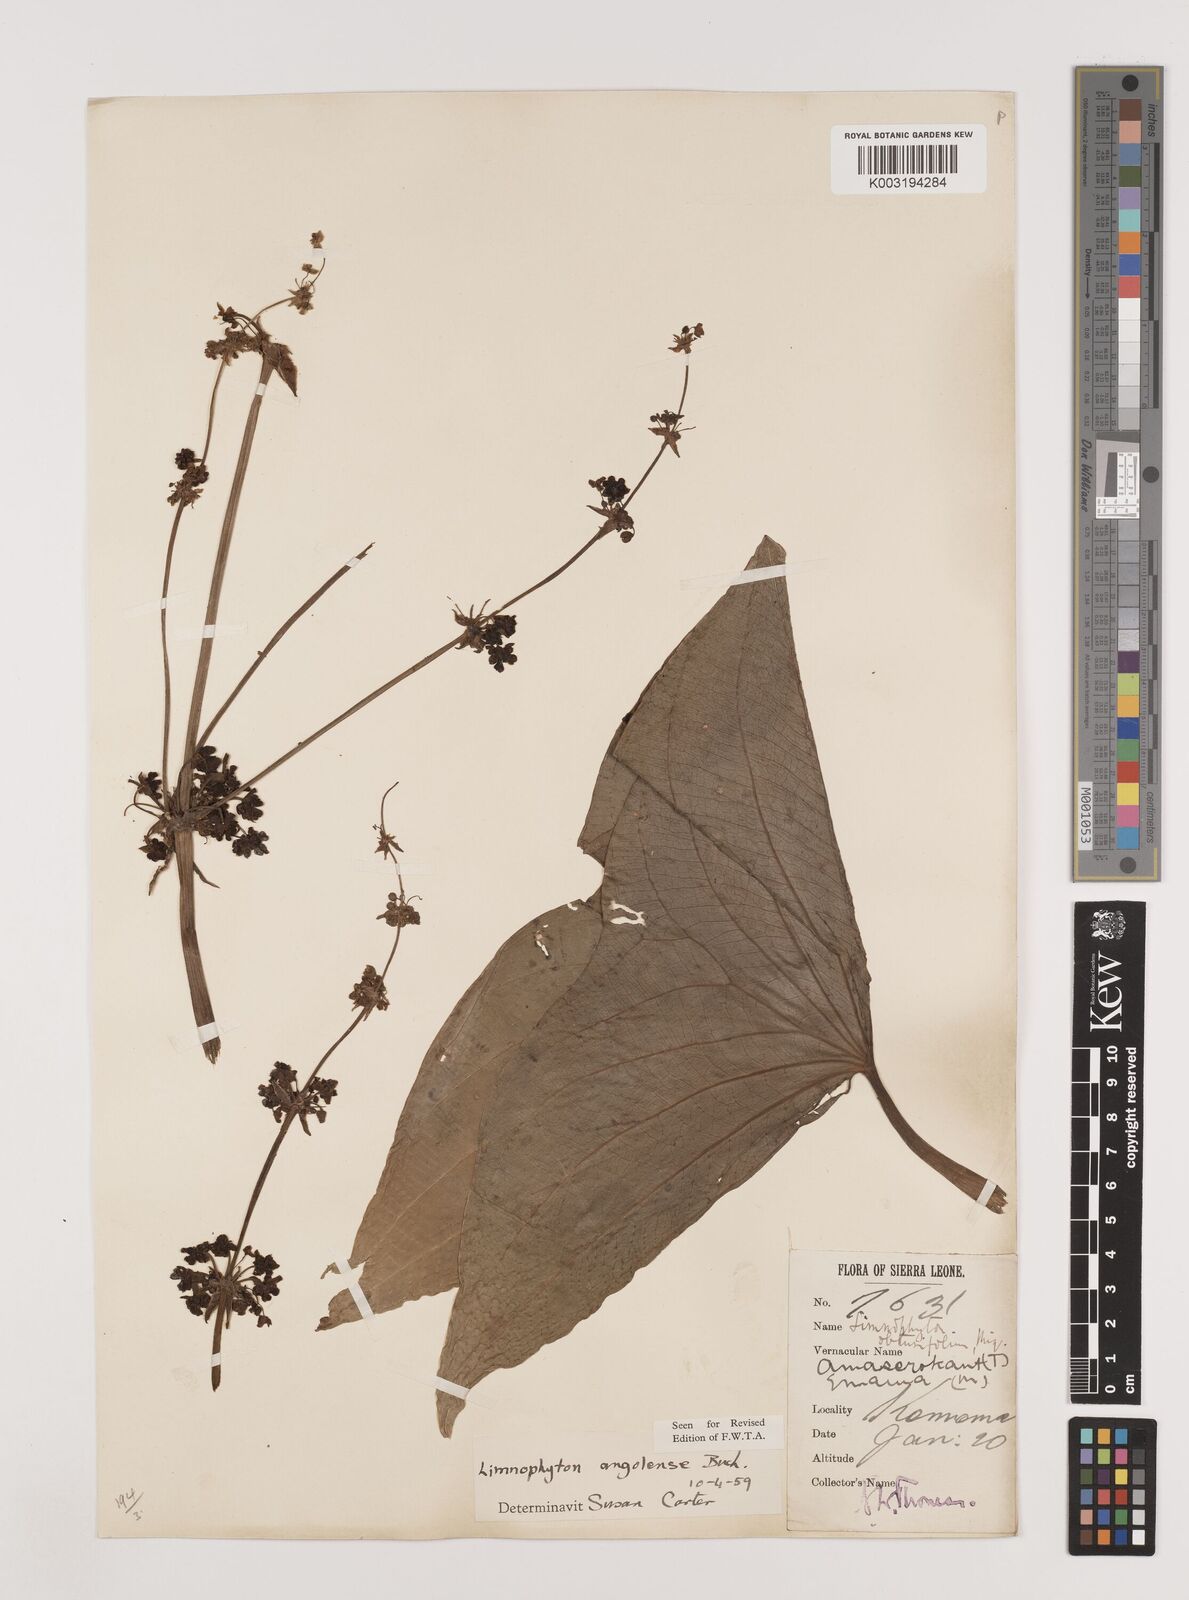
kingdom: Plantae
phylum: Tracheophyta
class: Liliopsida
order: Alismatales
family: Alismataceae
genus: Limnophyton
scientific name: Limnophyton angolense
